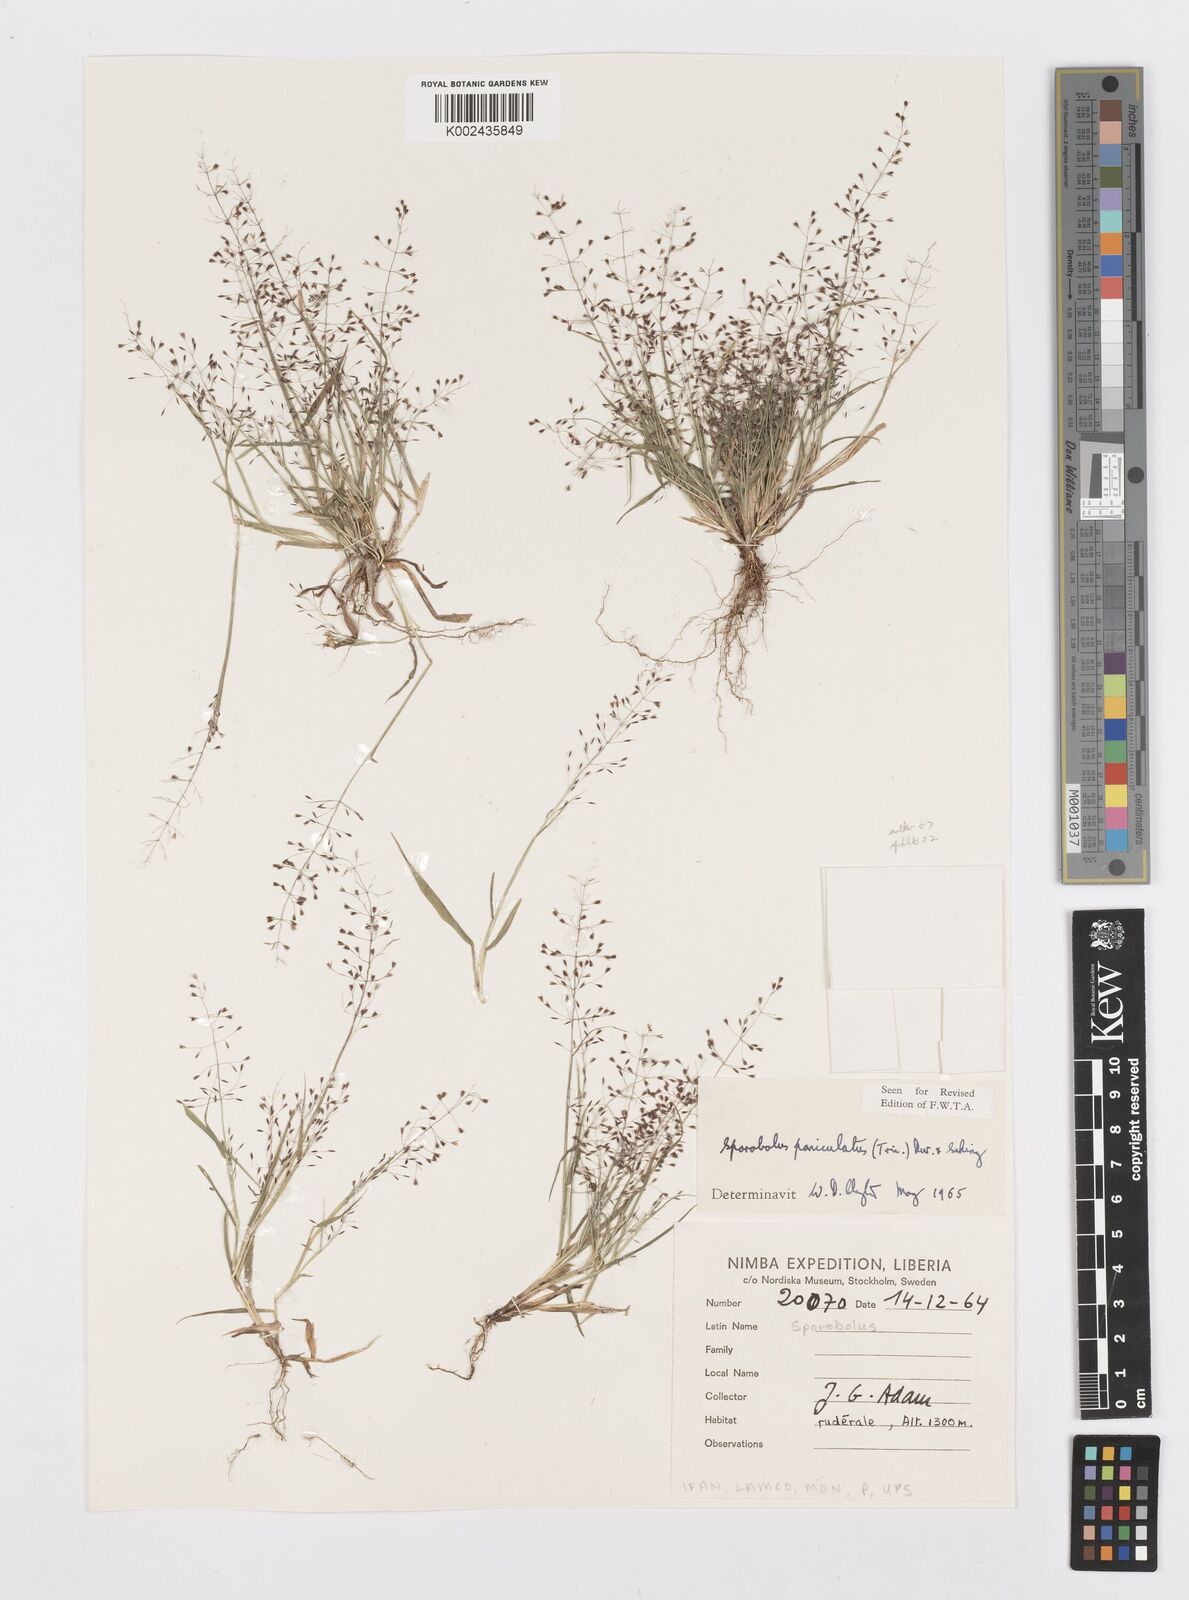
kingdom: Plantae
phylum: Tracheophyta
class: Liliopsida
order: Poales
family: Poaceae
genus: Sporobolus
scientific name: Sporobolus paniculatus
